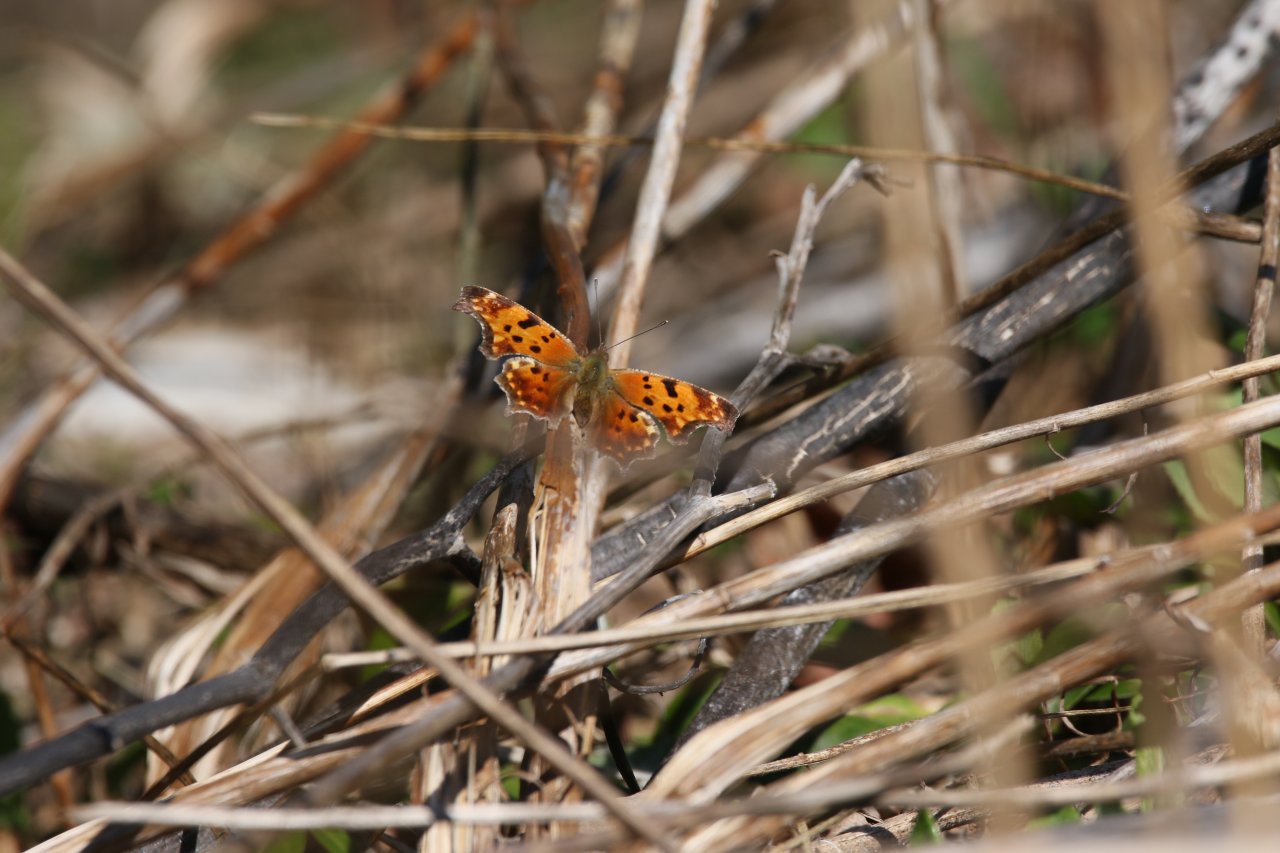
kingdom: Animalia
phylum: Arthropoda
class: Insecta
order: Lepidoptera
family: Nymphalidae
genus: Polygonia
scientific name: Polygonia comma
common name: Eastern Comma
